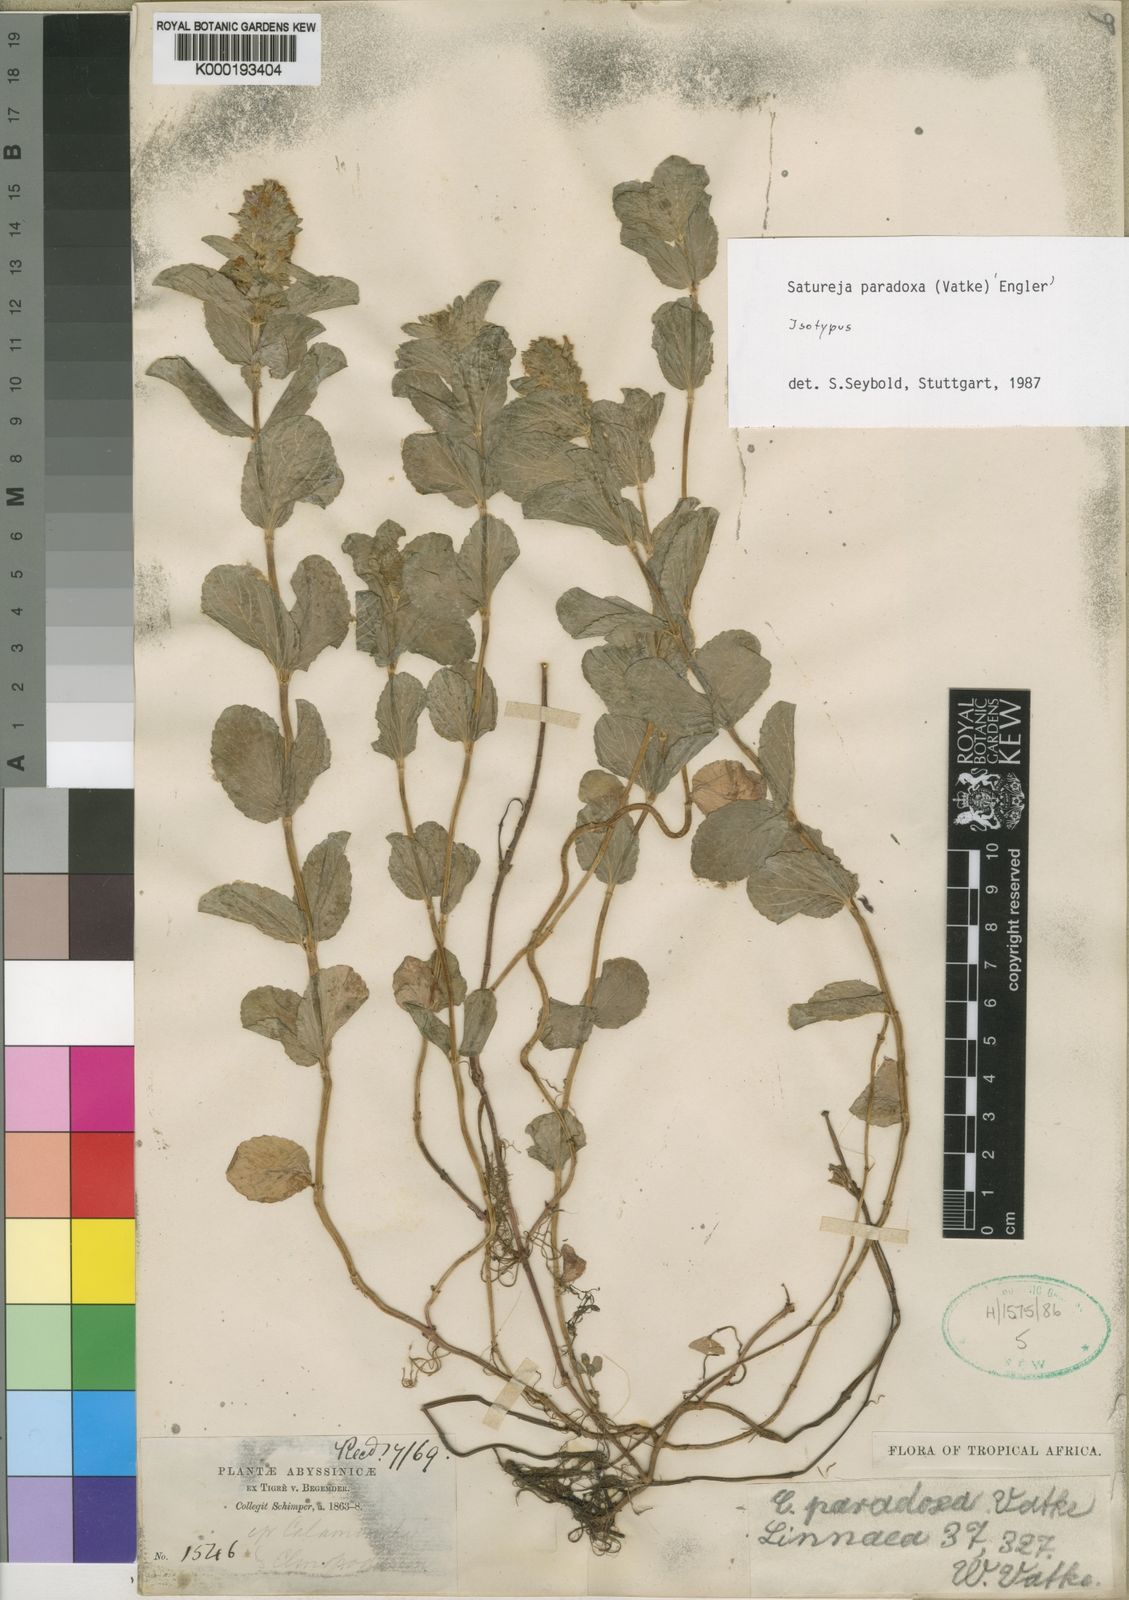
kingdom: Plantae
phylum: Tracheophyta
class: Magnoliopsida
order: Lamiales
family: Lamiaceae
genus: Clinopodium
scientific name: Clinopodium paradoxum
